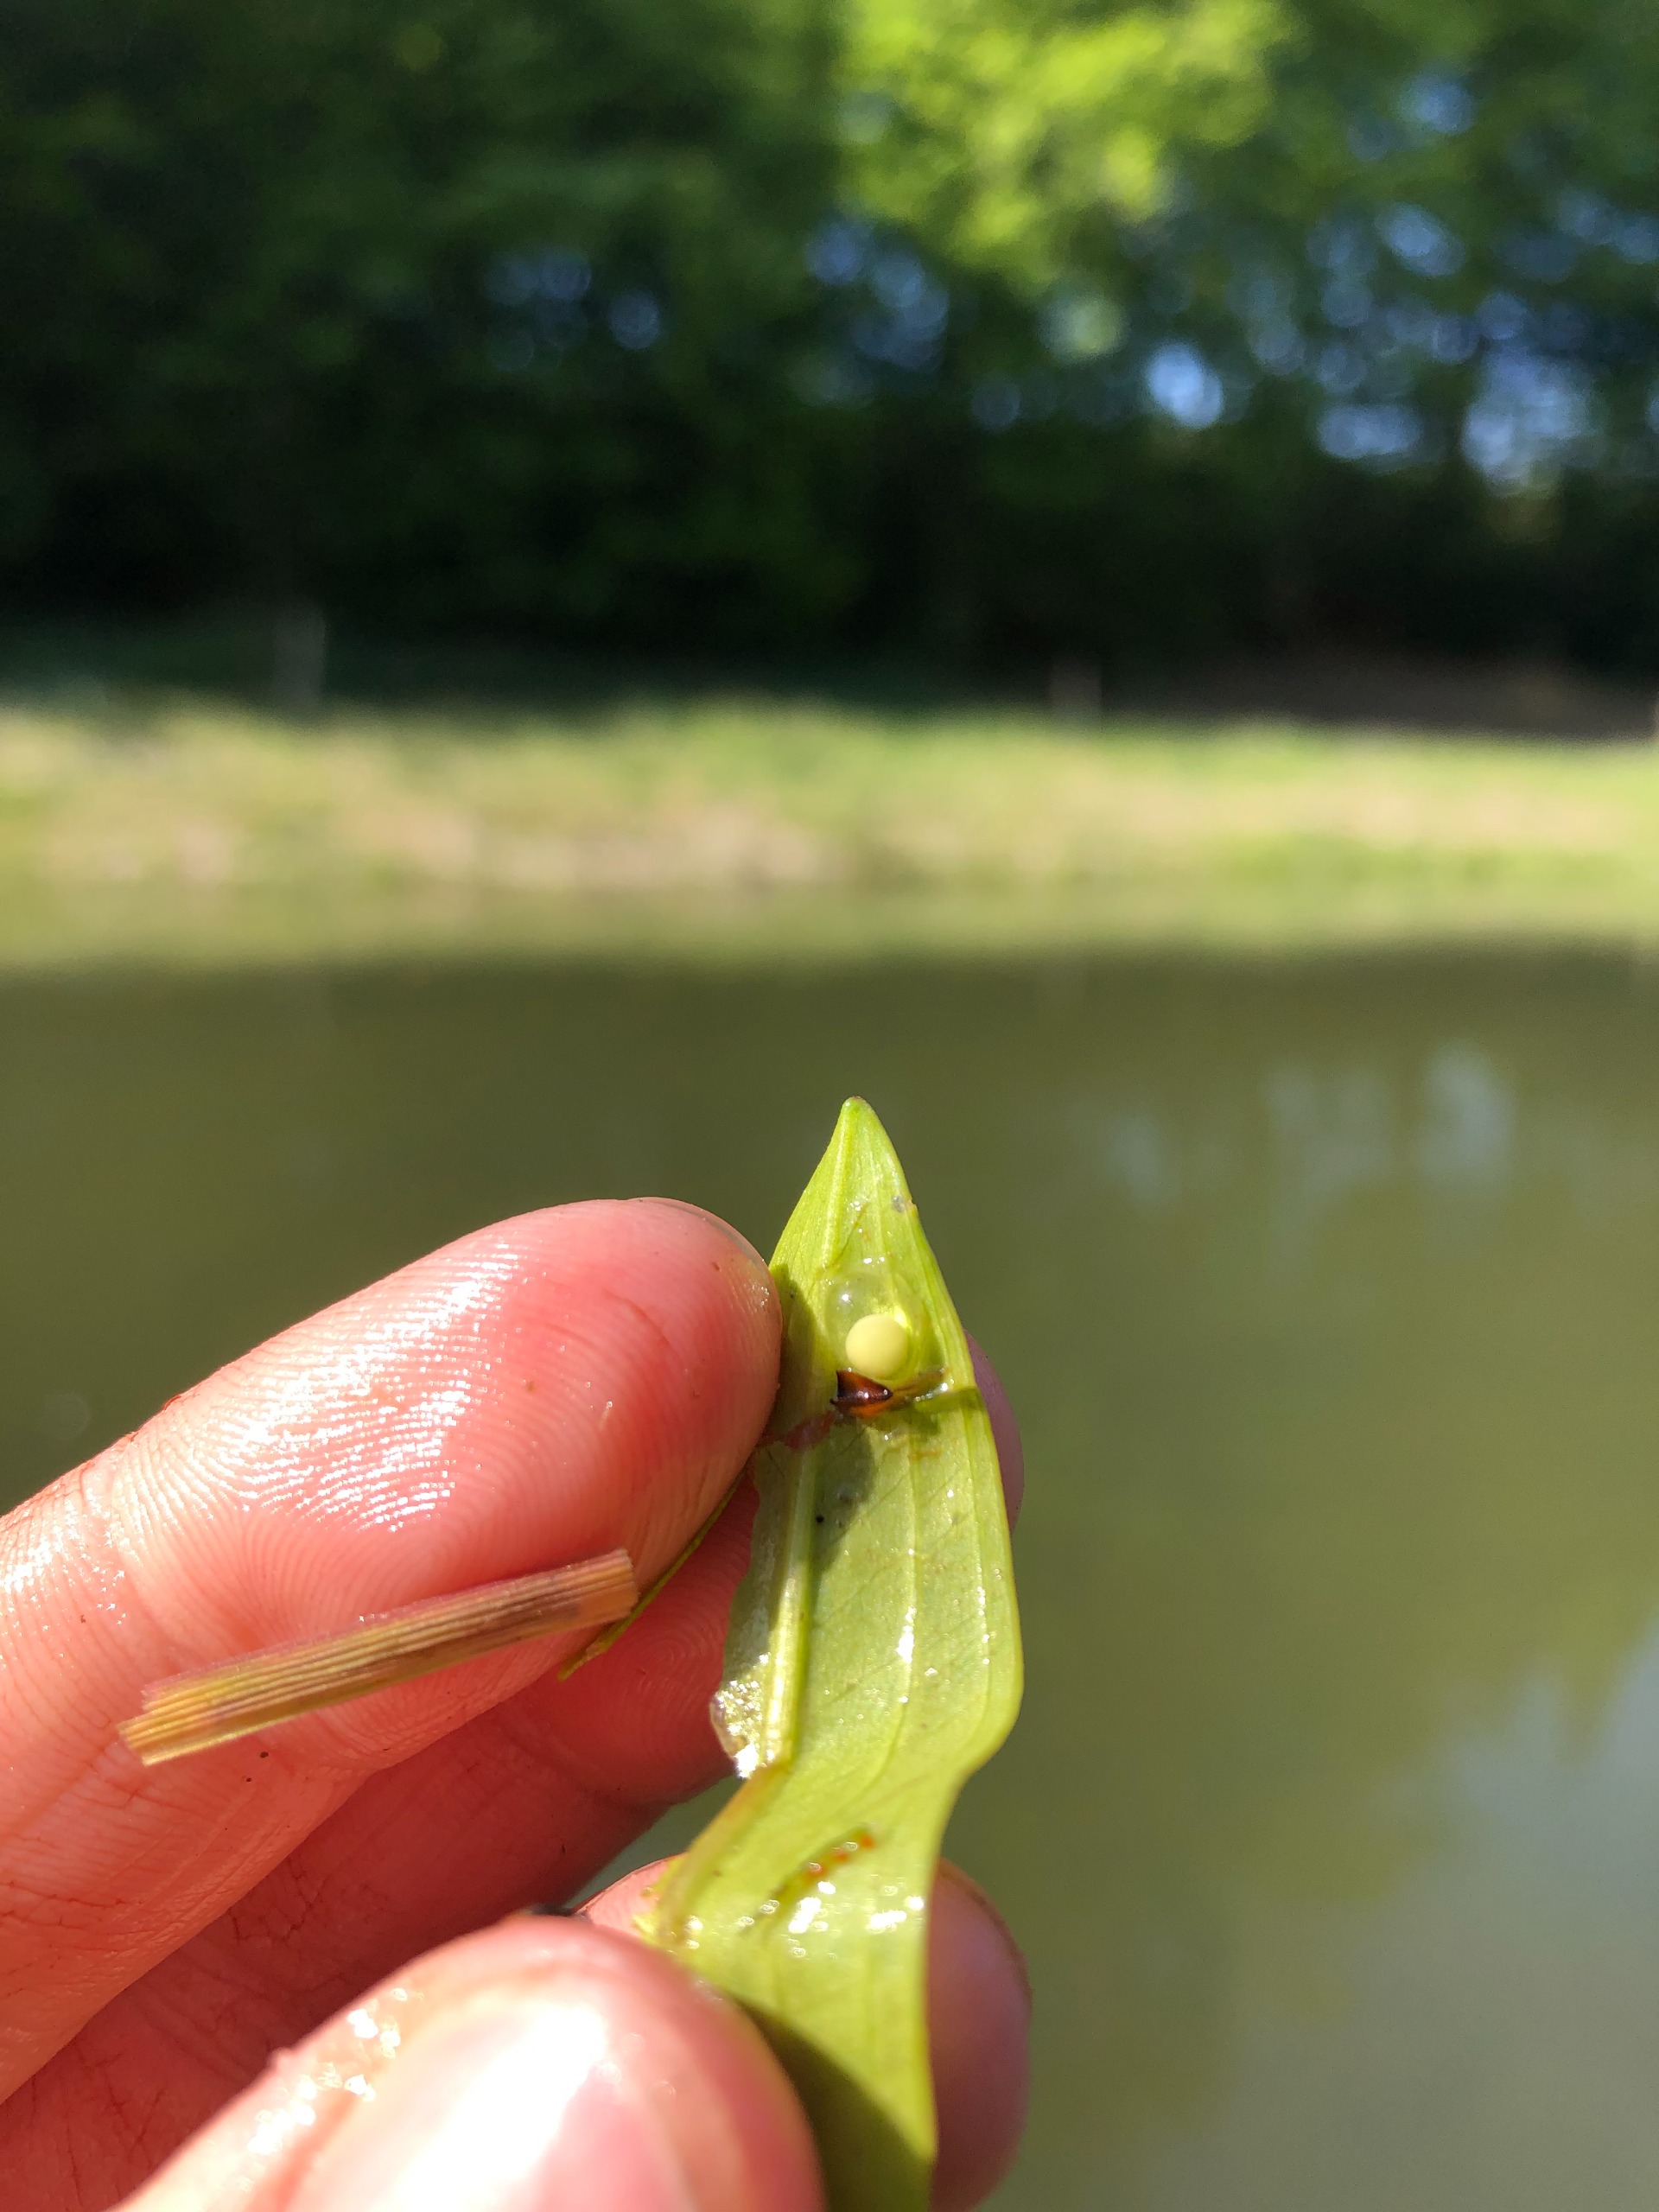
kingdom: Animalia
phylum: Chordata
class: Amphibia
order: Caudata
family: Salamandridae
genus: Triturus
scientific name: Triturus cristatus
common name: Stor vandsalamander
